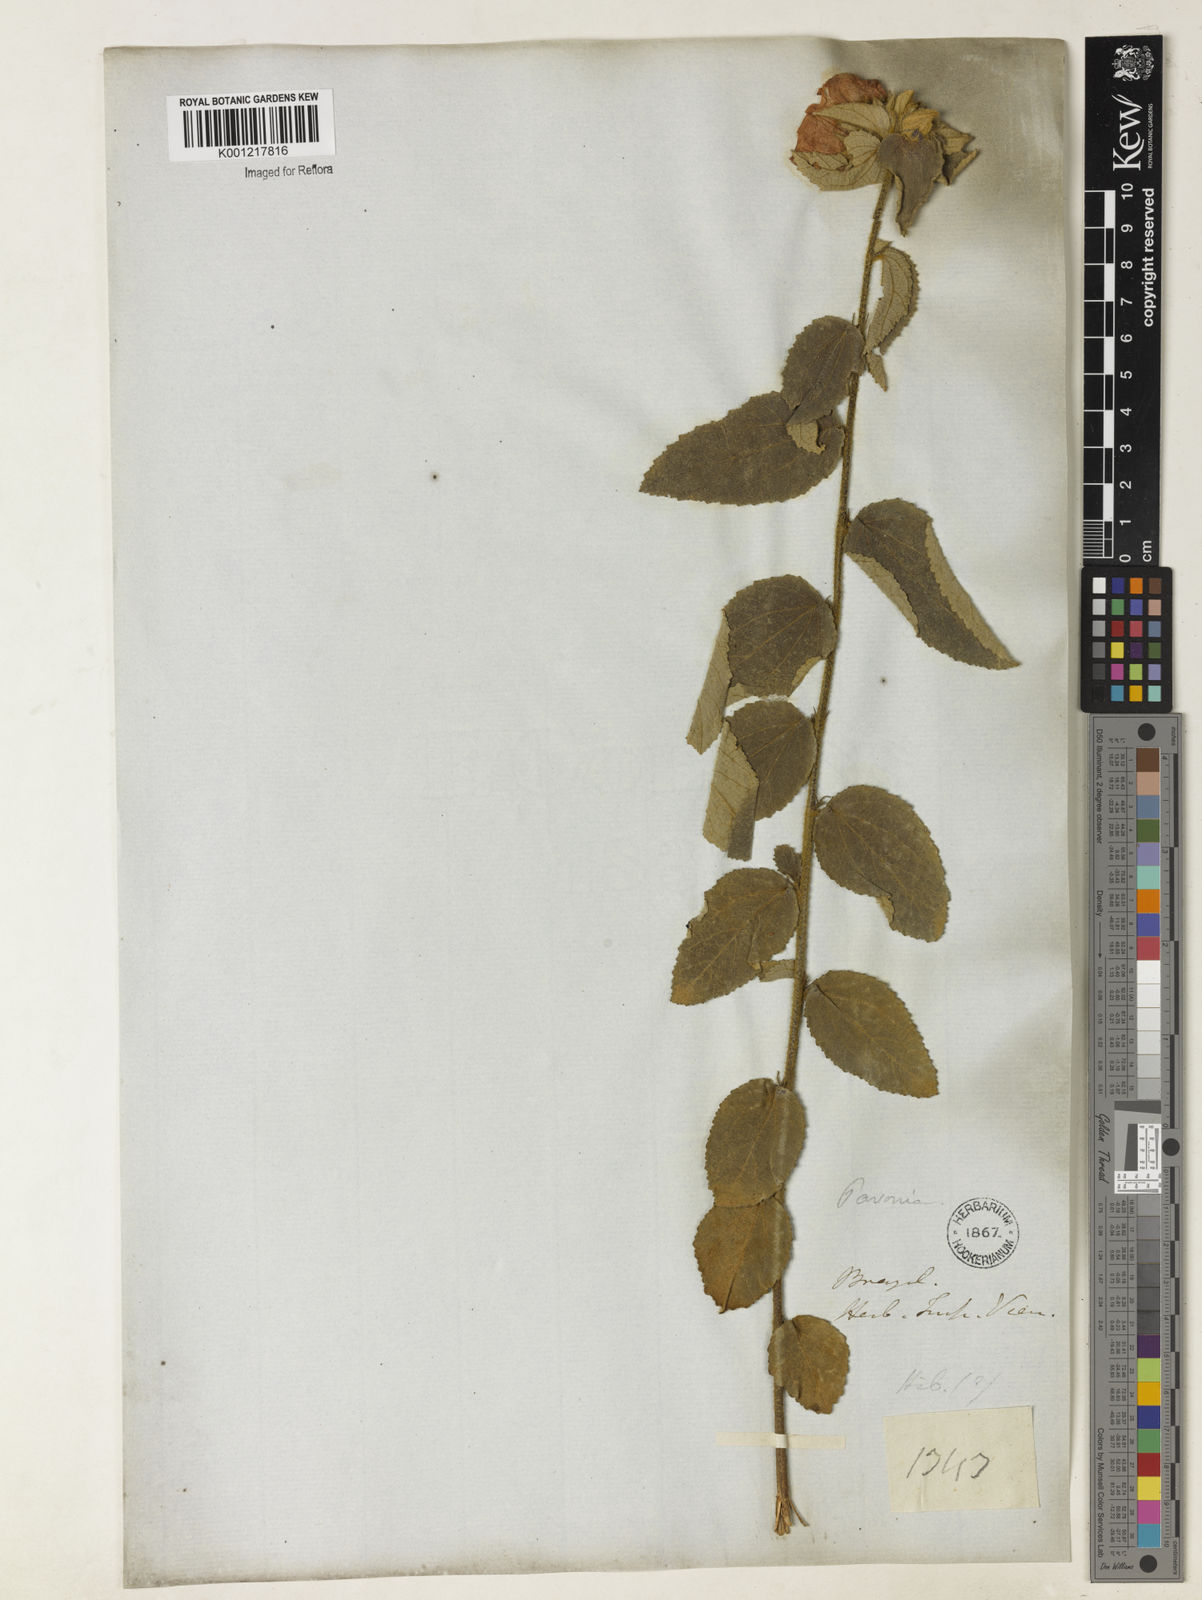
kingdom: Plantae
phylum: Tracheophyta
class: Magnoliopsida
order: Malvales
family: Malvaceae
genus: Pavonia
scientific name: Pavonia
